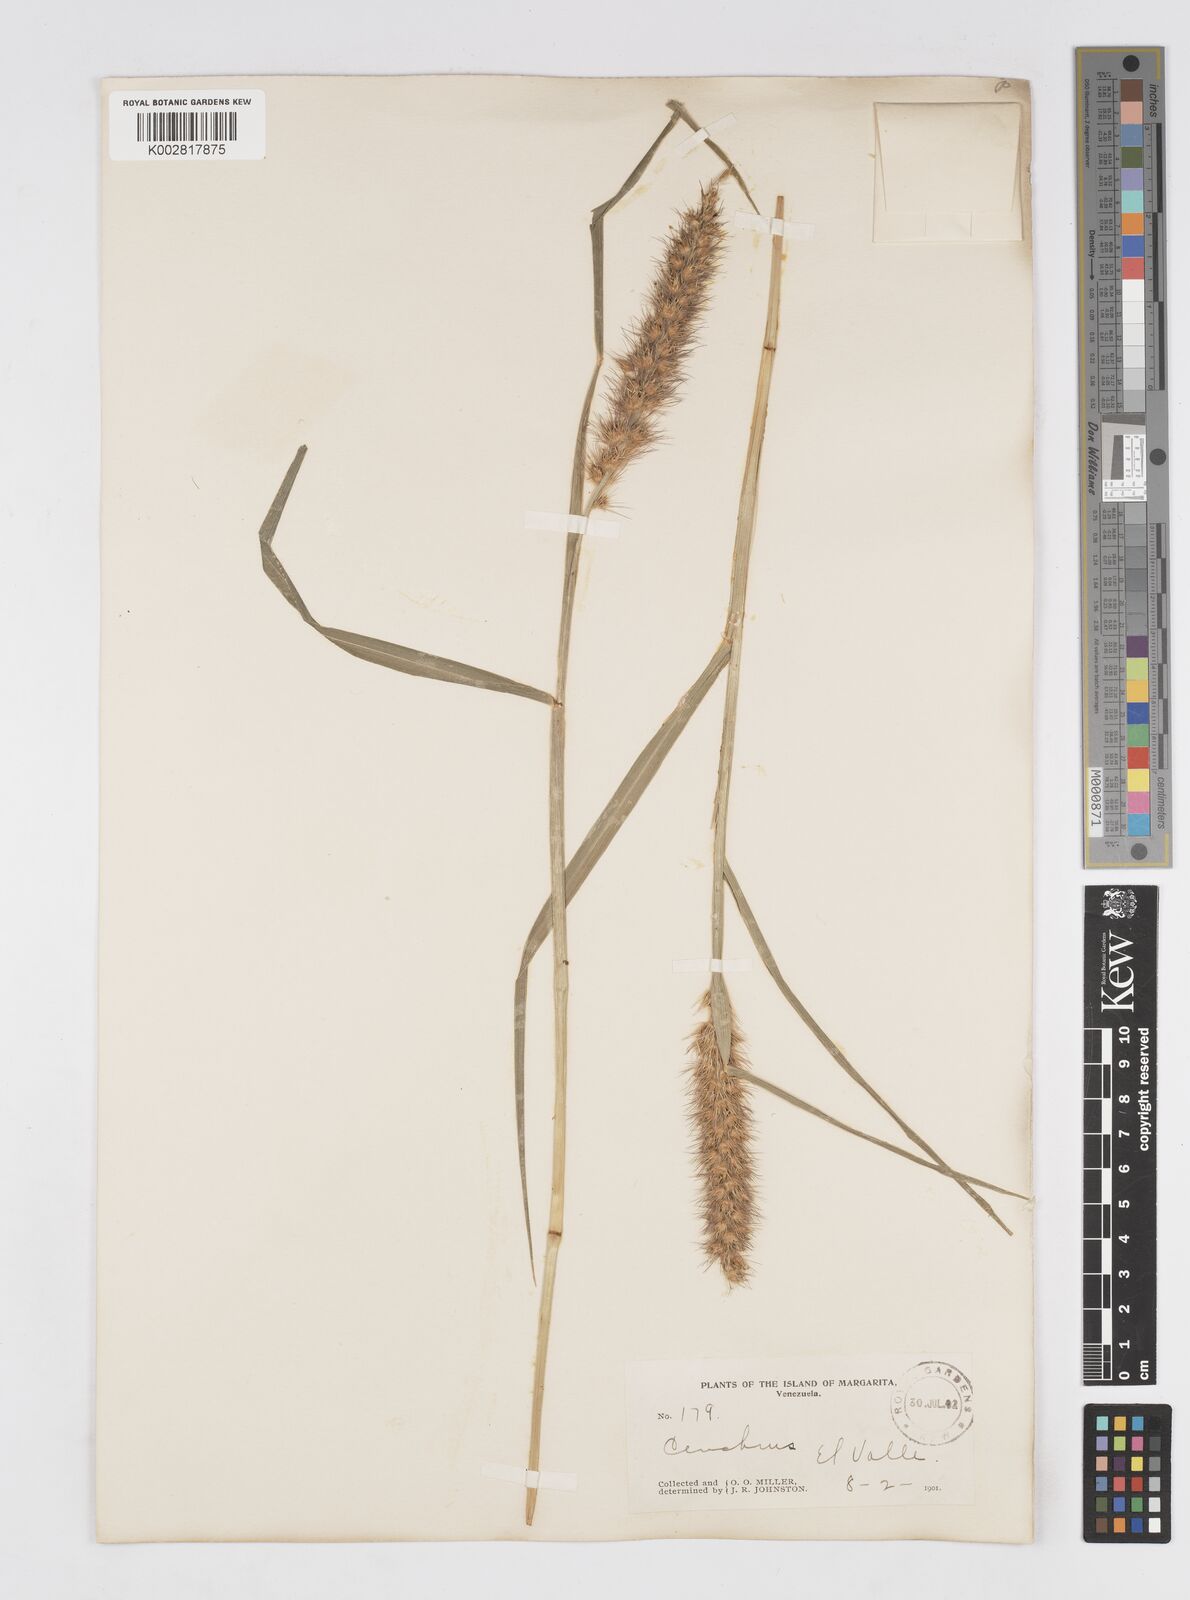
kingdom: Plantae
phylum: Tracheophyta
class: Liliopsida
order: Poales
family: Poaceae
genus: Cenchrus
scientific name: Cenchrus pilosus
